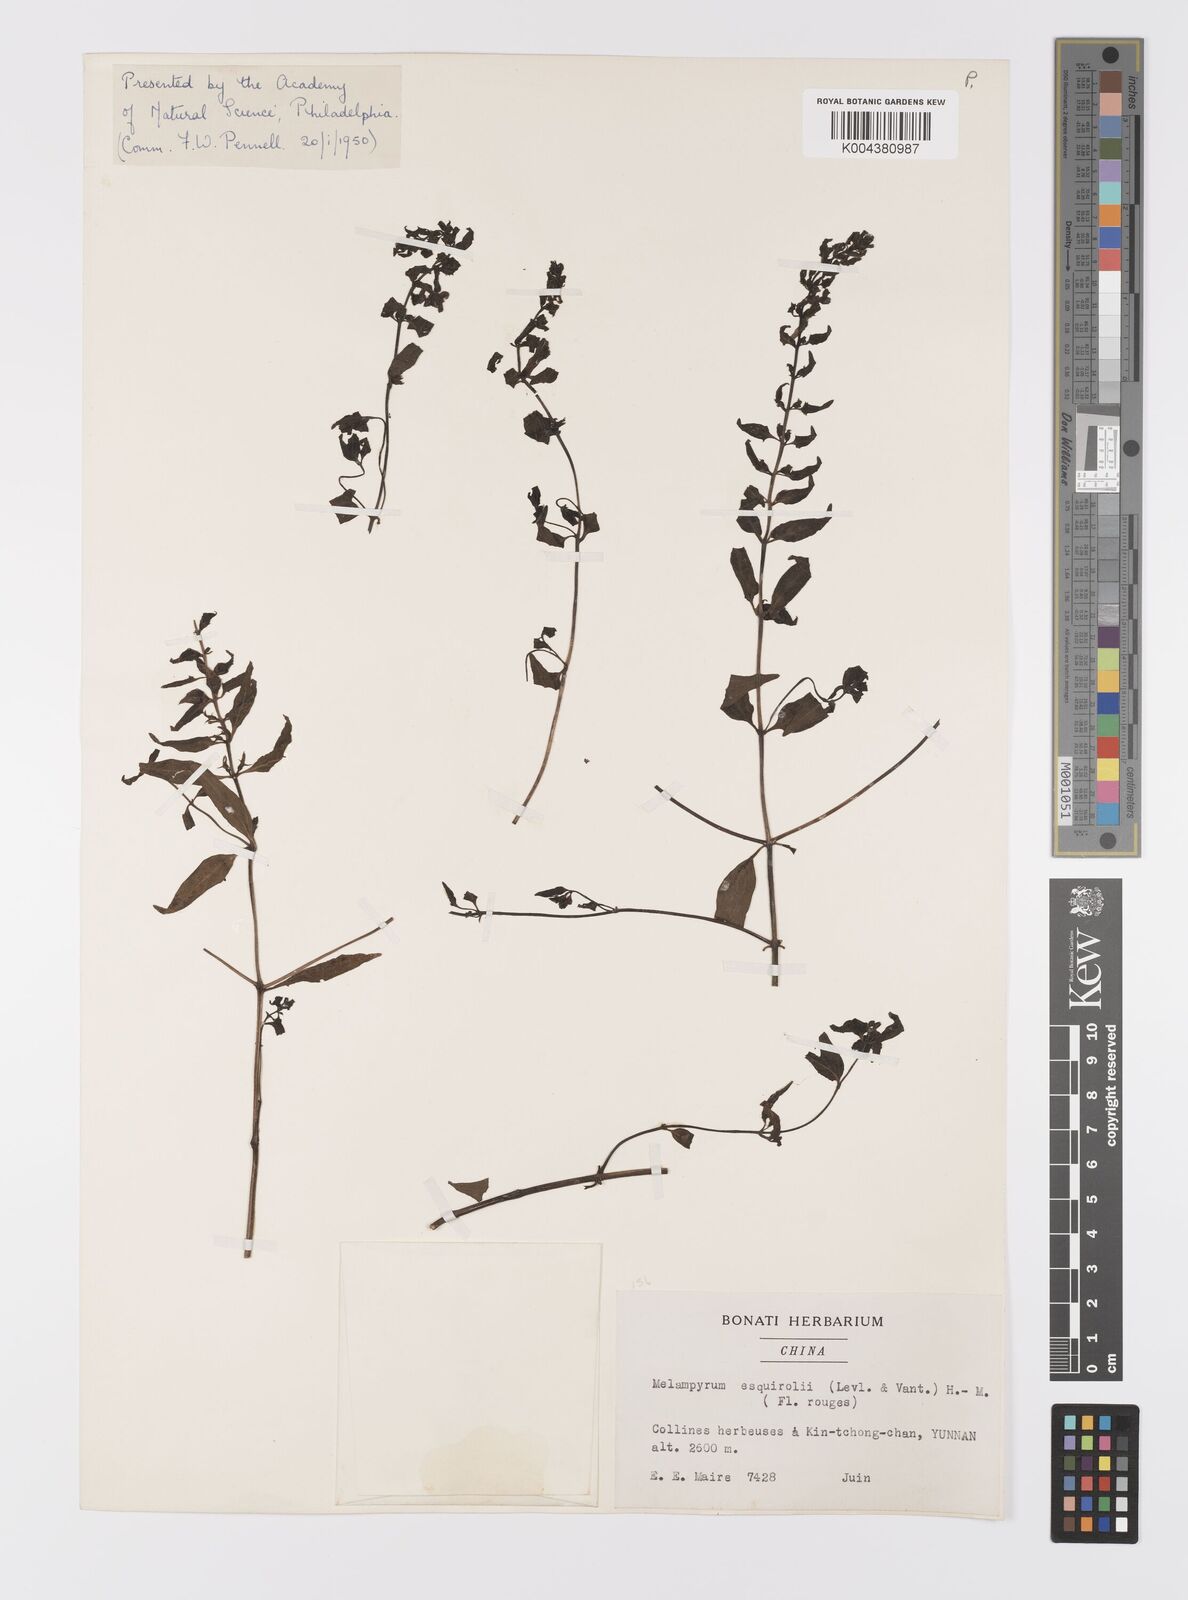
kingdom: Plantae
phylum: Tracheophyta
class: Magnoliopsida
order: Lamiales
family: Orobanchaceae
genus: Melampyrum
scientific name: Melampyrum roseum
